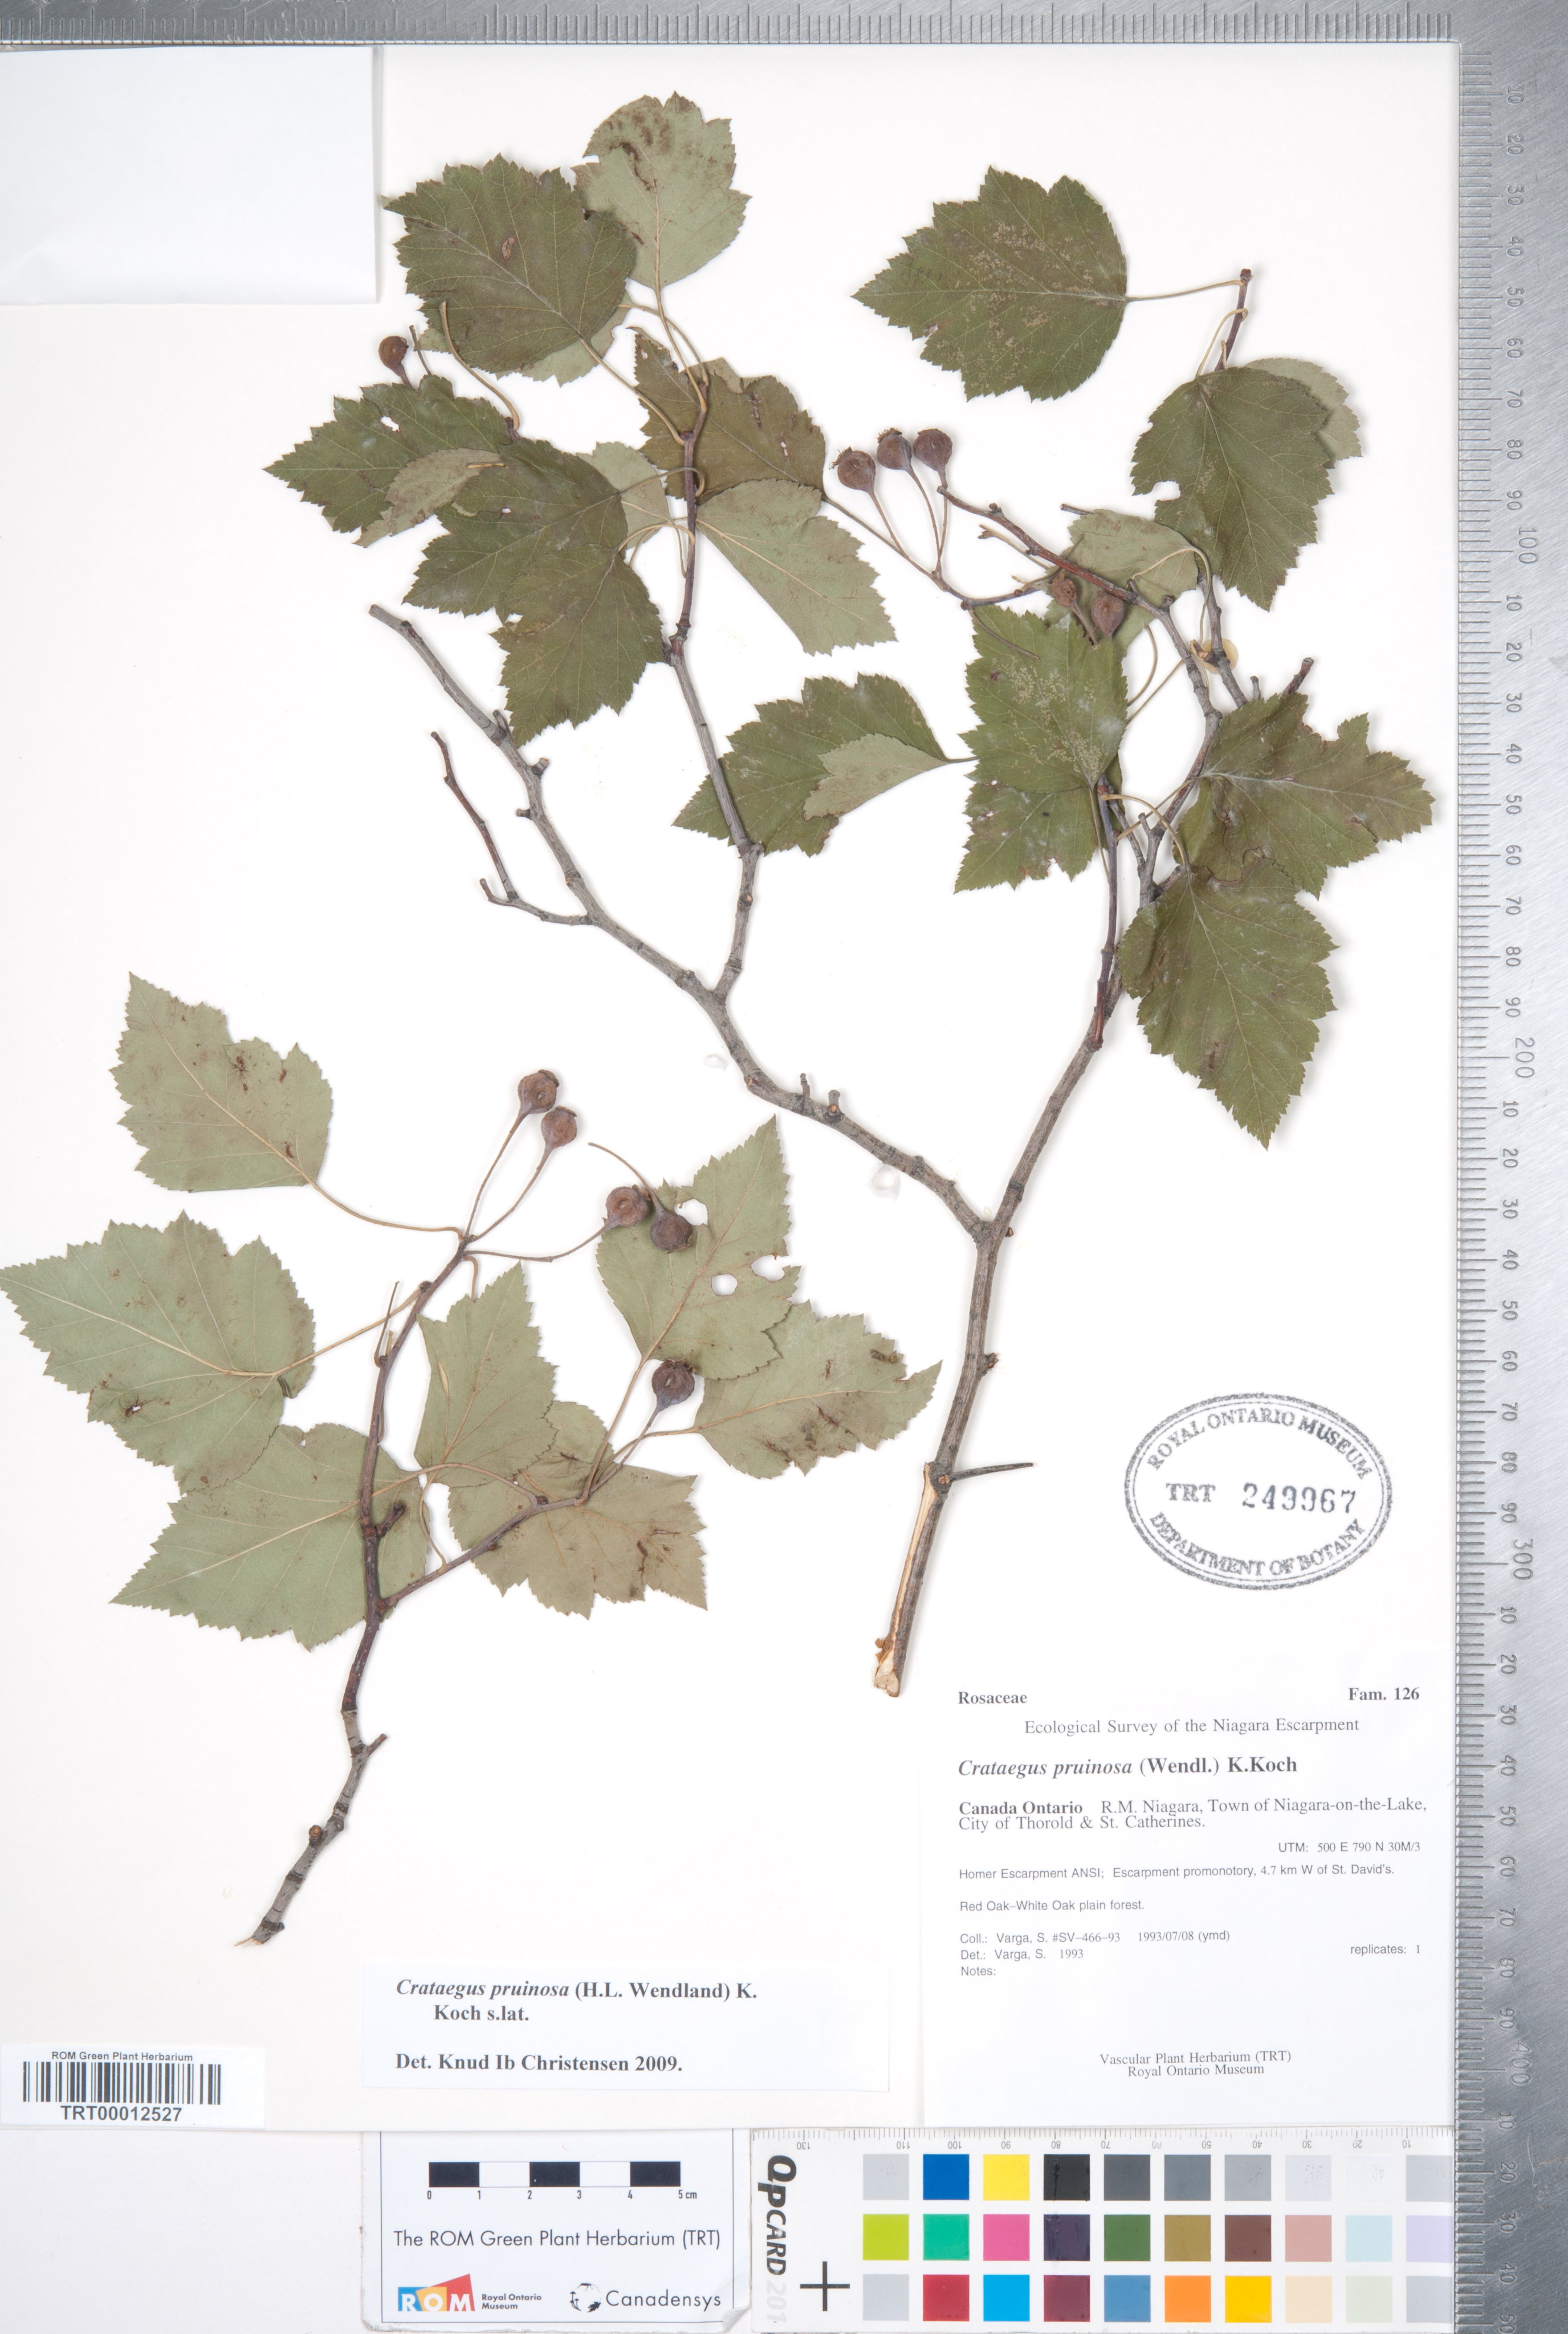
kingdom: Plantae
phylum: Tracheophyta
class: Magnoliopsida
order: Rosales
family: Rosaceae
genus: Crataegus
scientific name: Crataegus pruinosa
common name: Waxy-fruit hawthorn
